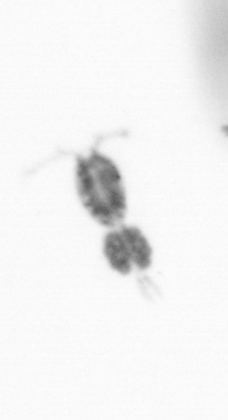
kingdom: Animalia
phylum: Arthropoda
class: Copepoda
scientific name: Copepoda
